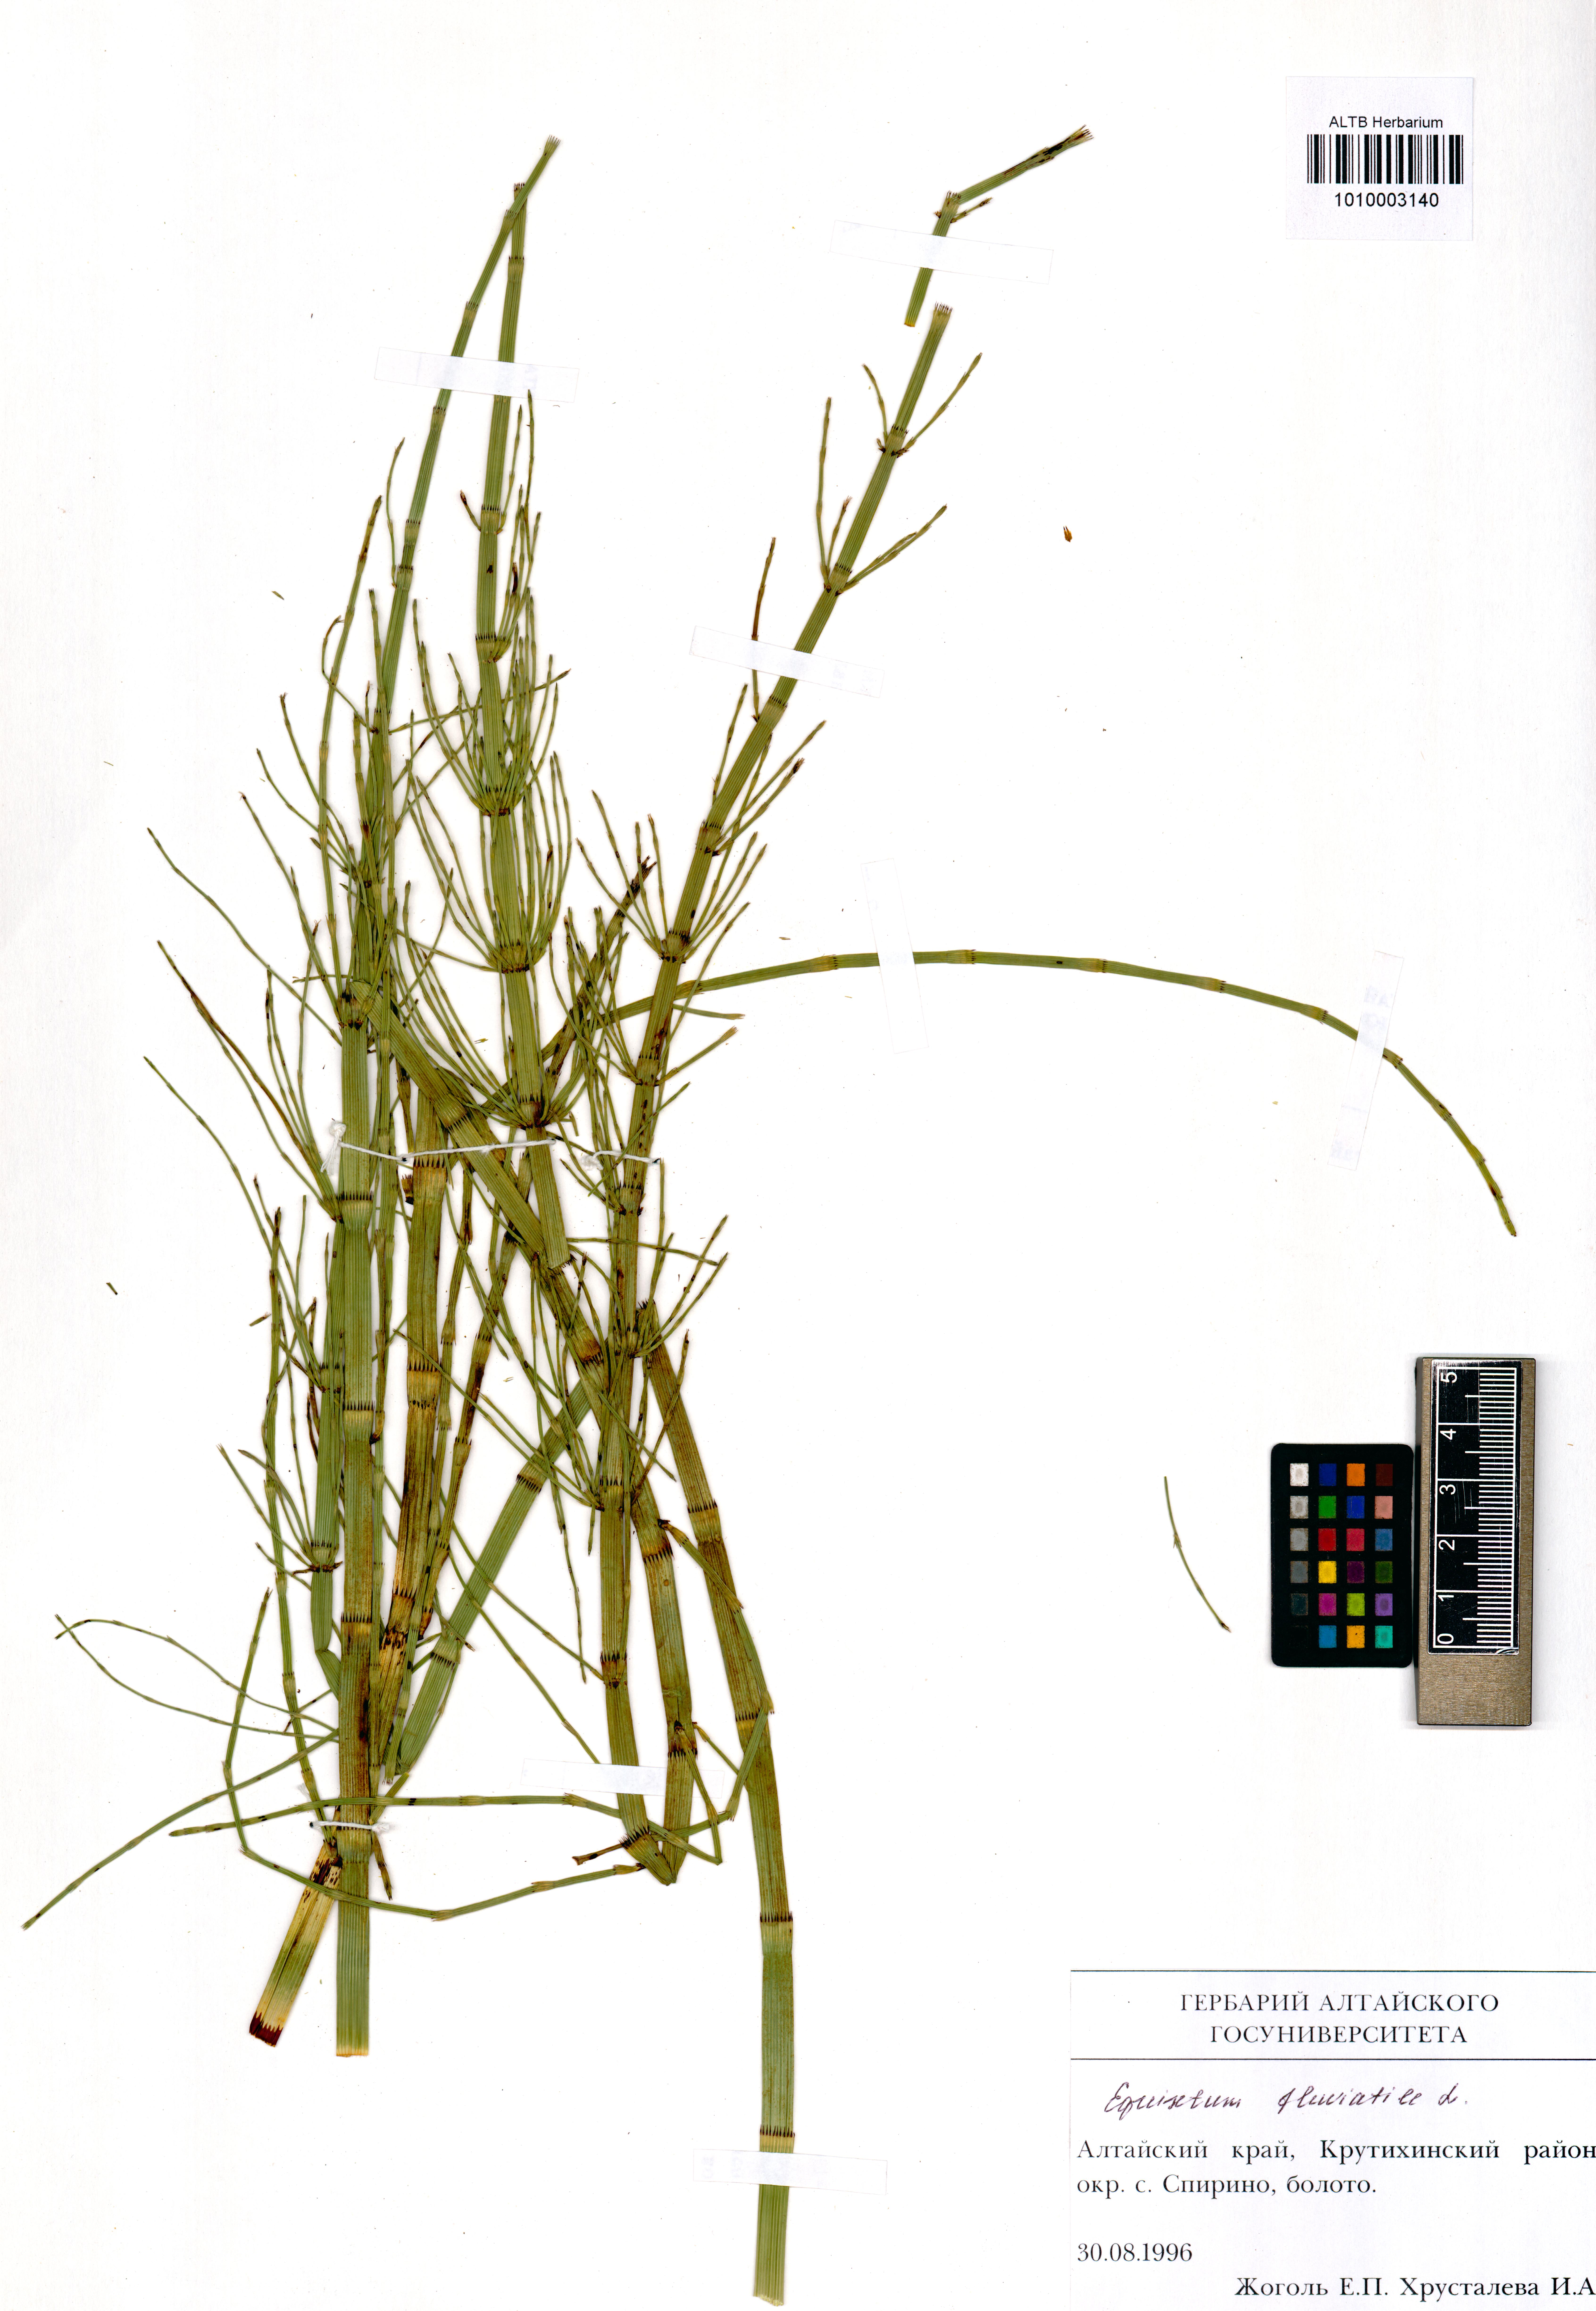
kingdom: Plantae
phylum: Tracheophyta
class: Polypodiopsida
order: Equisetales
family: Equisetaceae
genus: Equisetum
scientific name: Equisetum fluviatile
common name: Water horsetail
